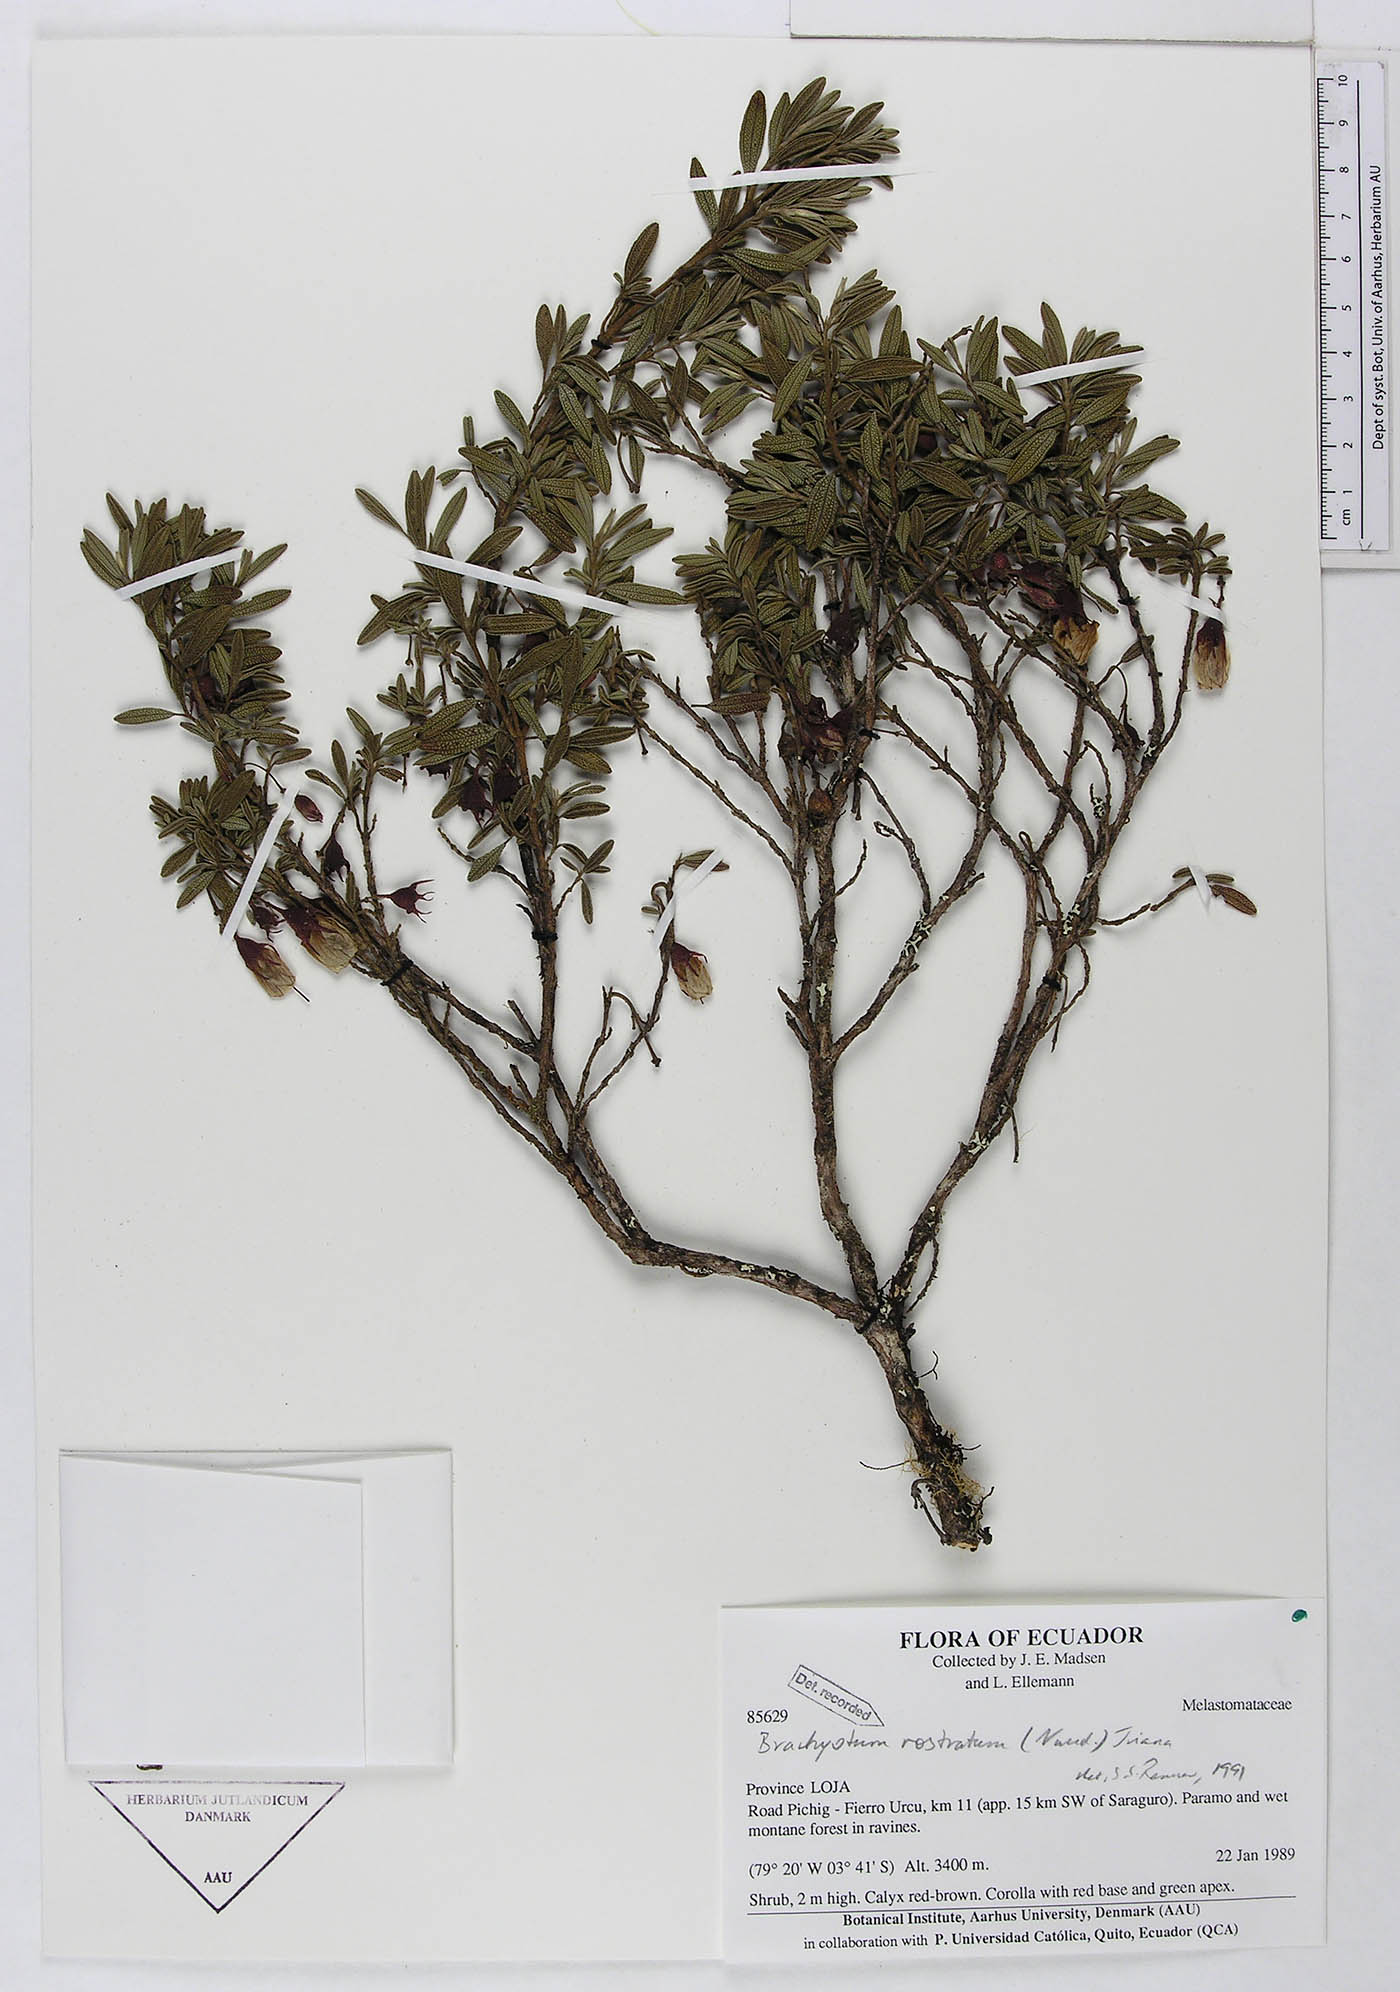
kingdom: Plantae
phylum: Tracheophyta
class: Magnoliopsida
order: Myrtales
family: Melastomataceae
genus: Brachyotum
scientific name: Brachyotum rostratum
